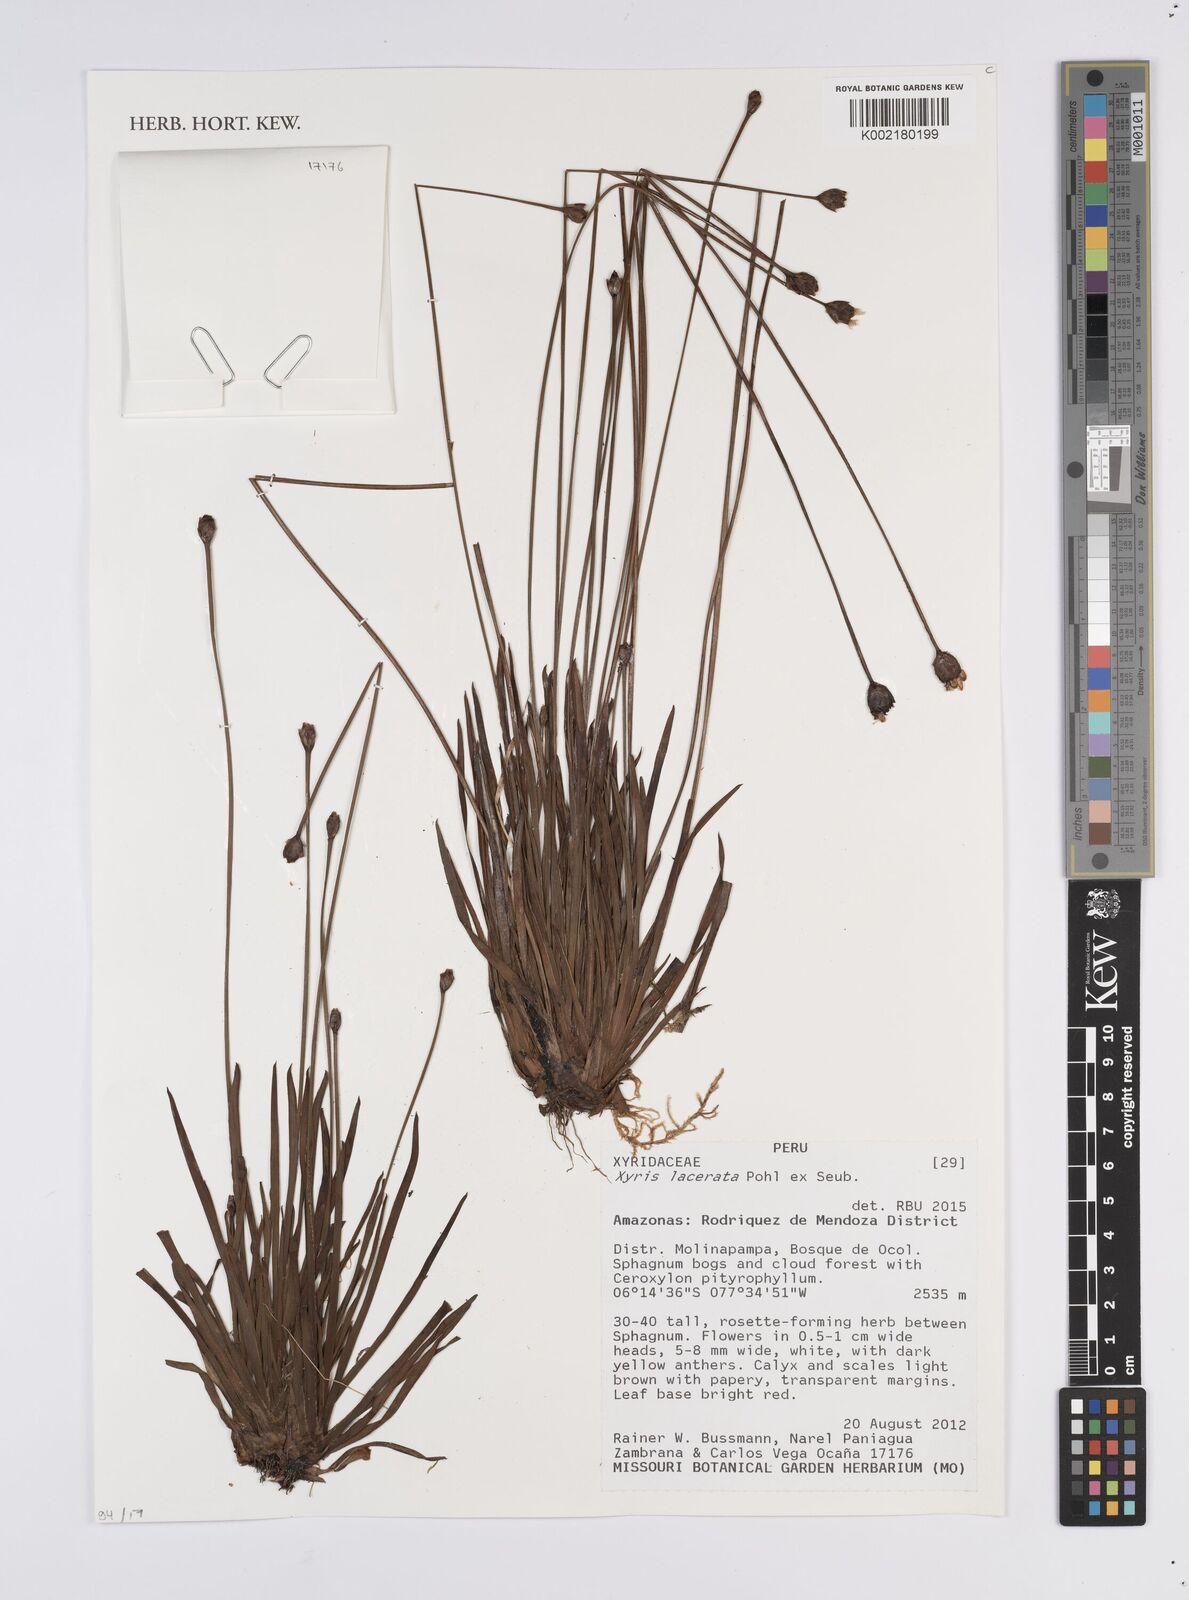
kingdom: Plantae
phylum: Tracheophyta
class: Liliopsida
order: Poales
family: Xyridaceae
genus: Xyris
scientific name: Xyris lacerata
